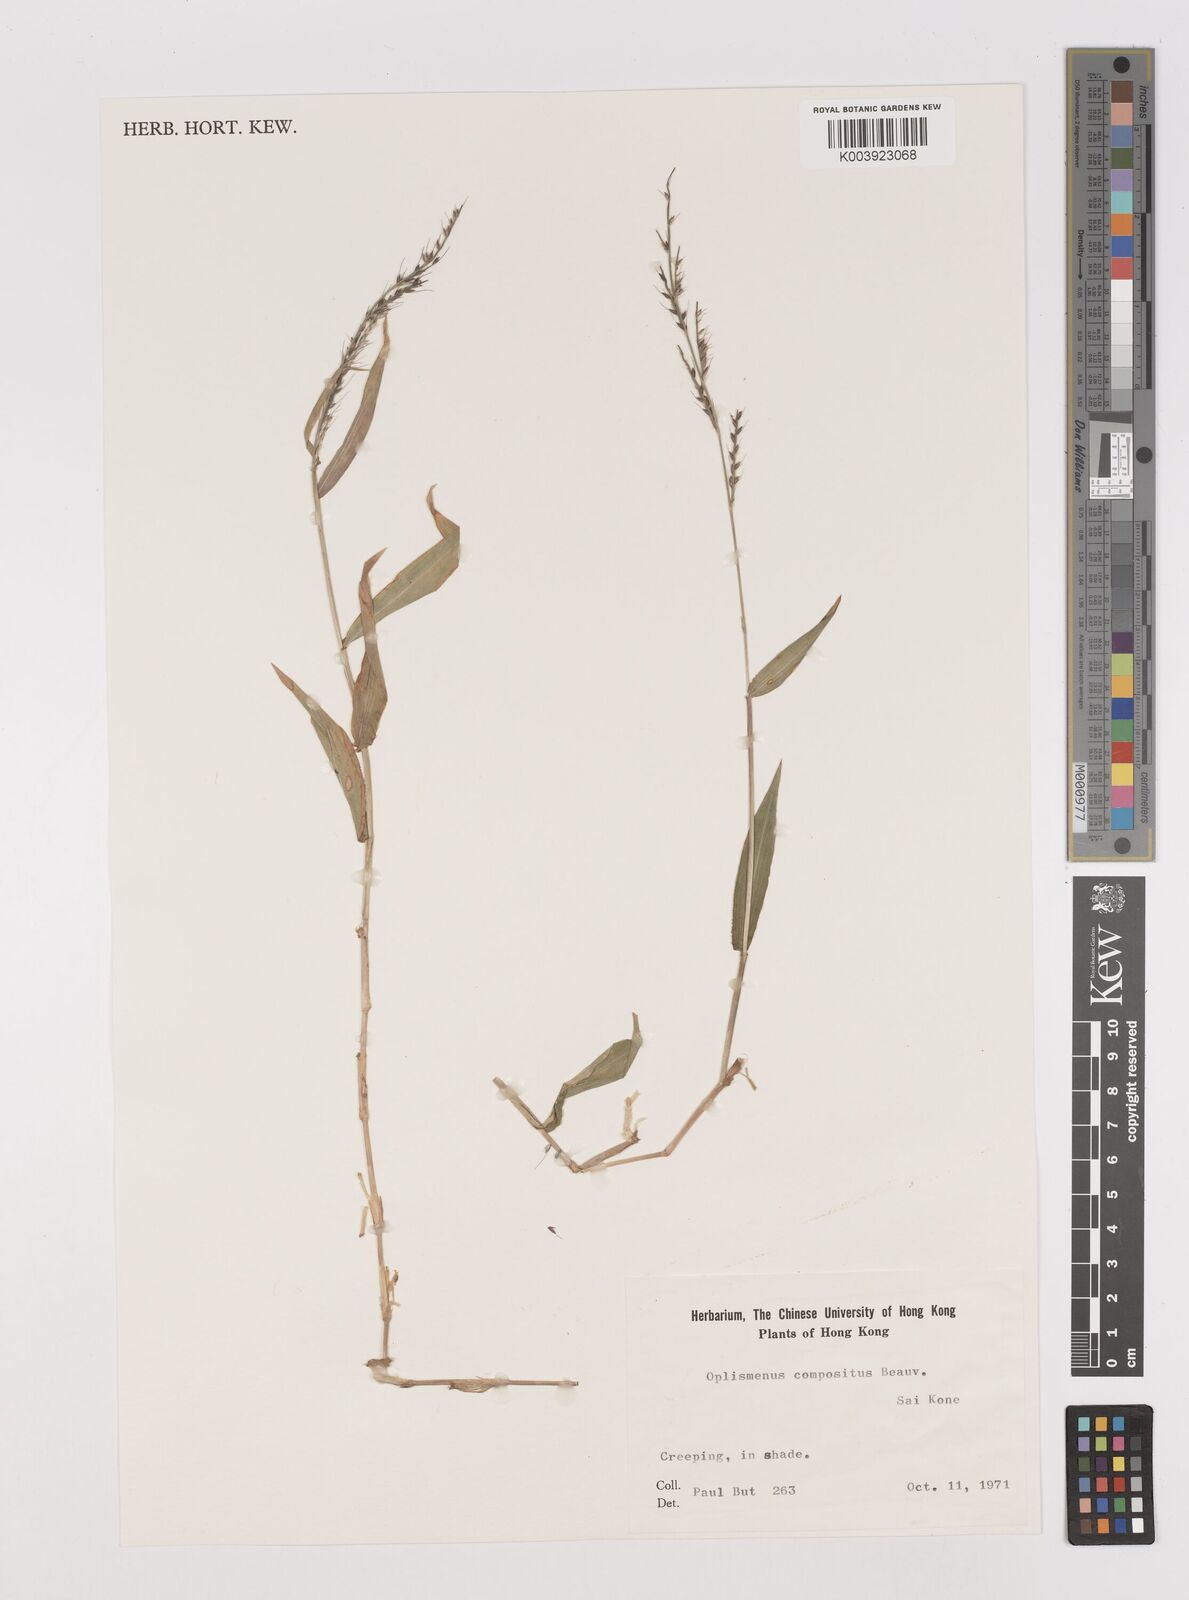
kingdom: Plantae
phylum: Tracheophyta
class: Liliopsida
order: Poales
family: Poaceae
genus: Oplismenus
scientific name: Oplismenus compositus
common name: Running mountain grass
